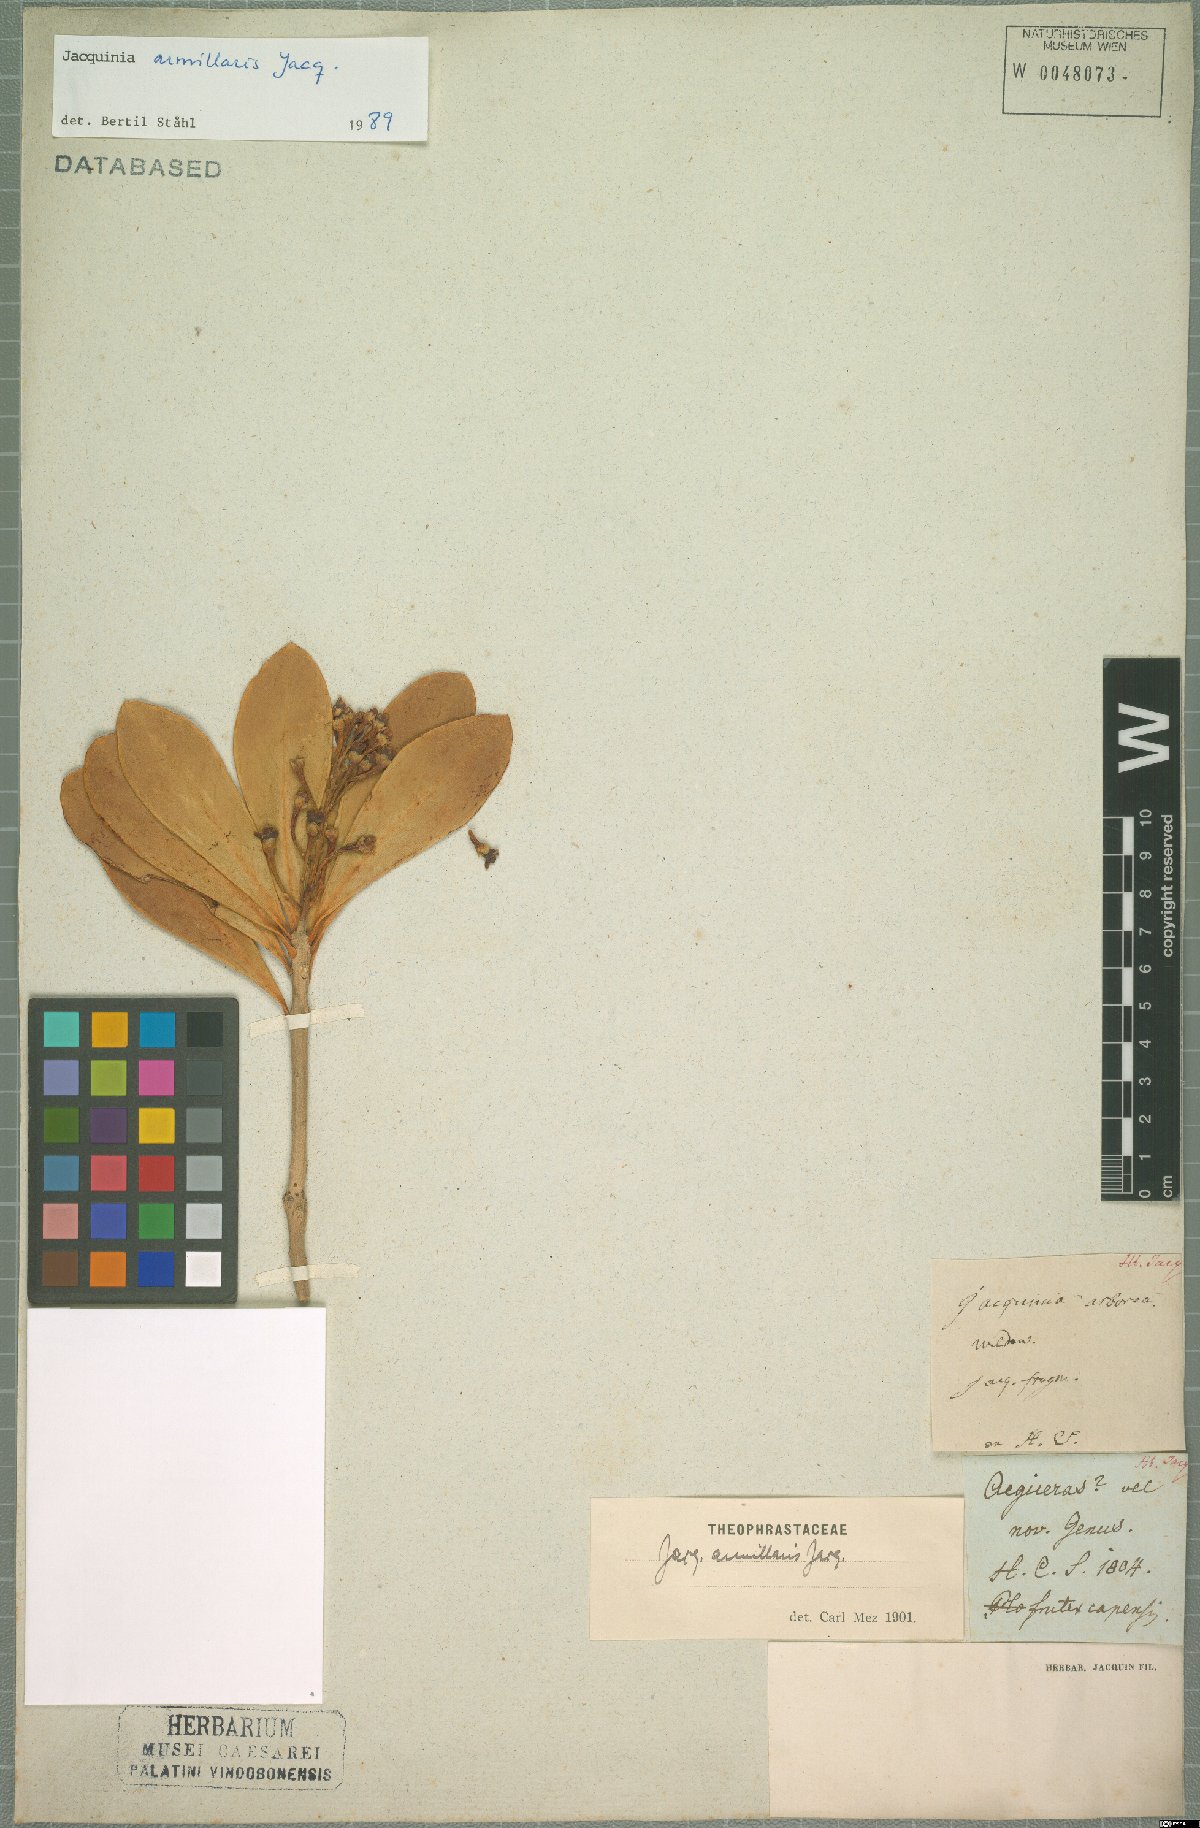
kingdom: Plantae
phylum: Tracheophyta
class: Magnoliopsida
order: Ericales
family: Primulaceae
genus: Jacquinia
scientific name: Jacquinia armillaris
